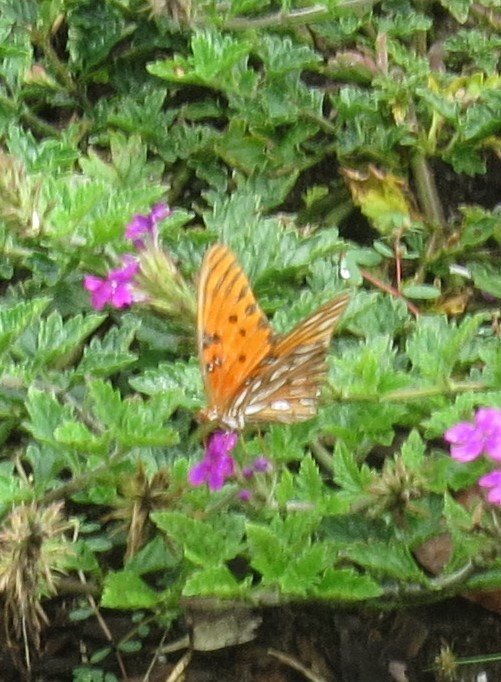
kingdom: Animalia
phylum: Arthropoda
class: Insecta
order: Lepidoptera
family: Nymphalidae
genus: Dione
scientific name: Dione vanillae
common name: Gulf Fritillary
